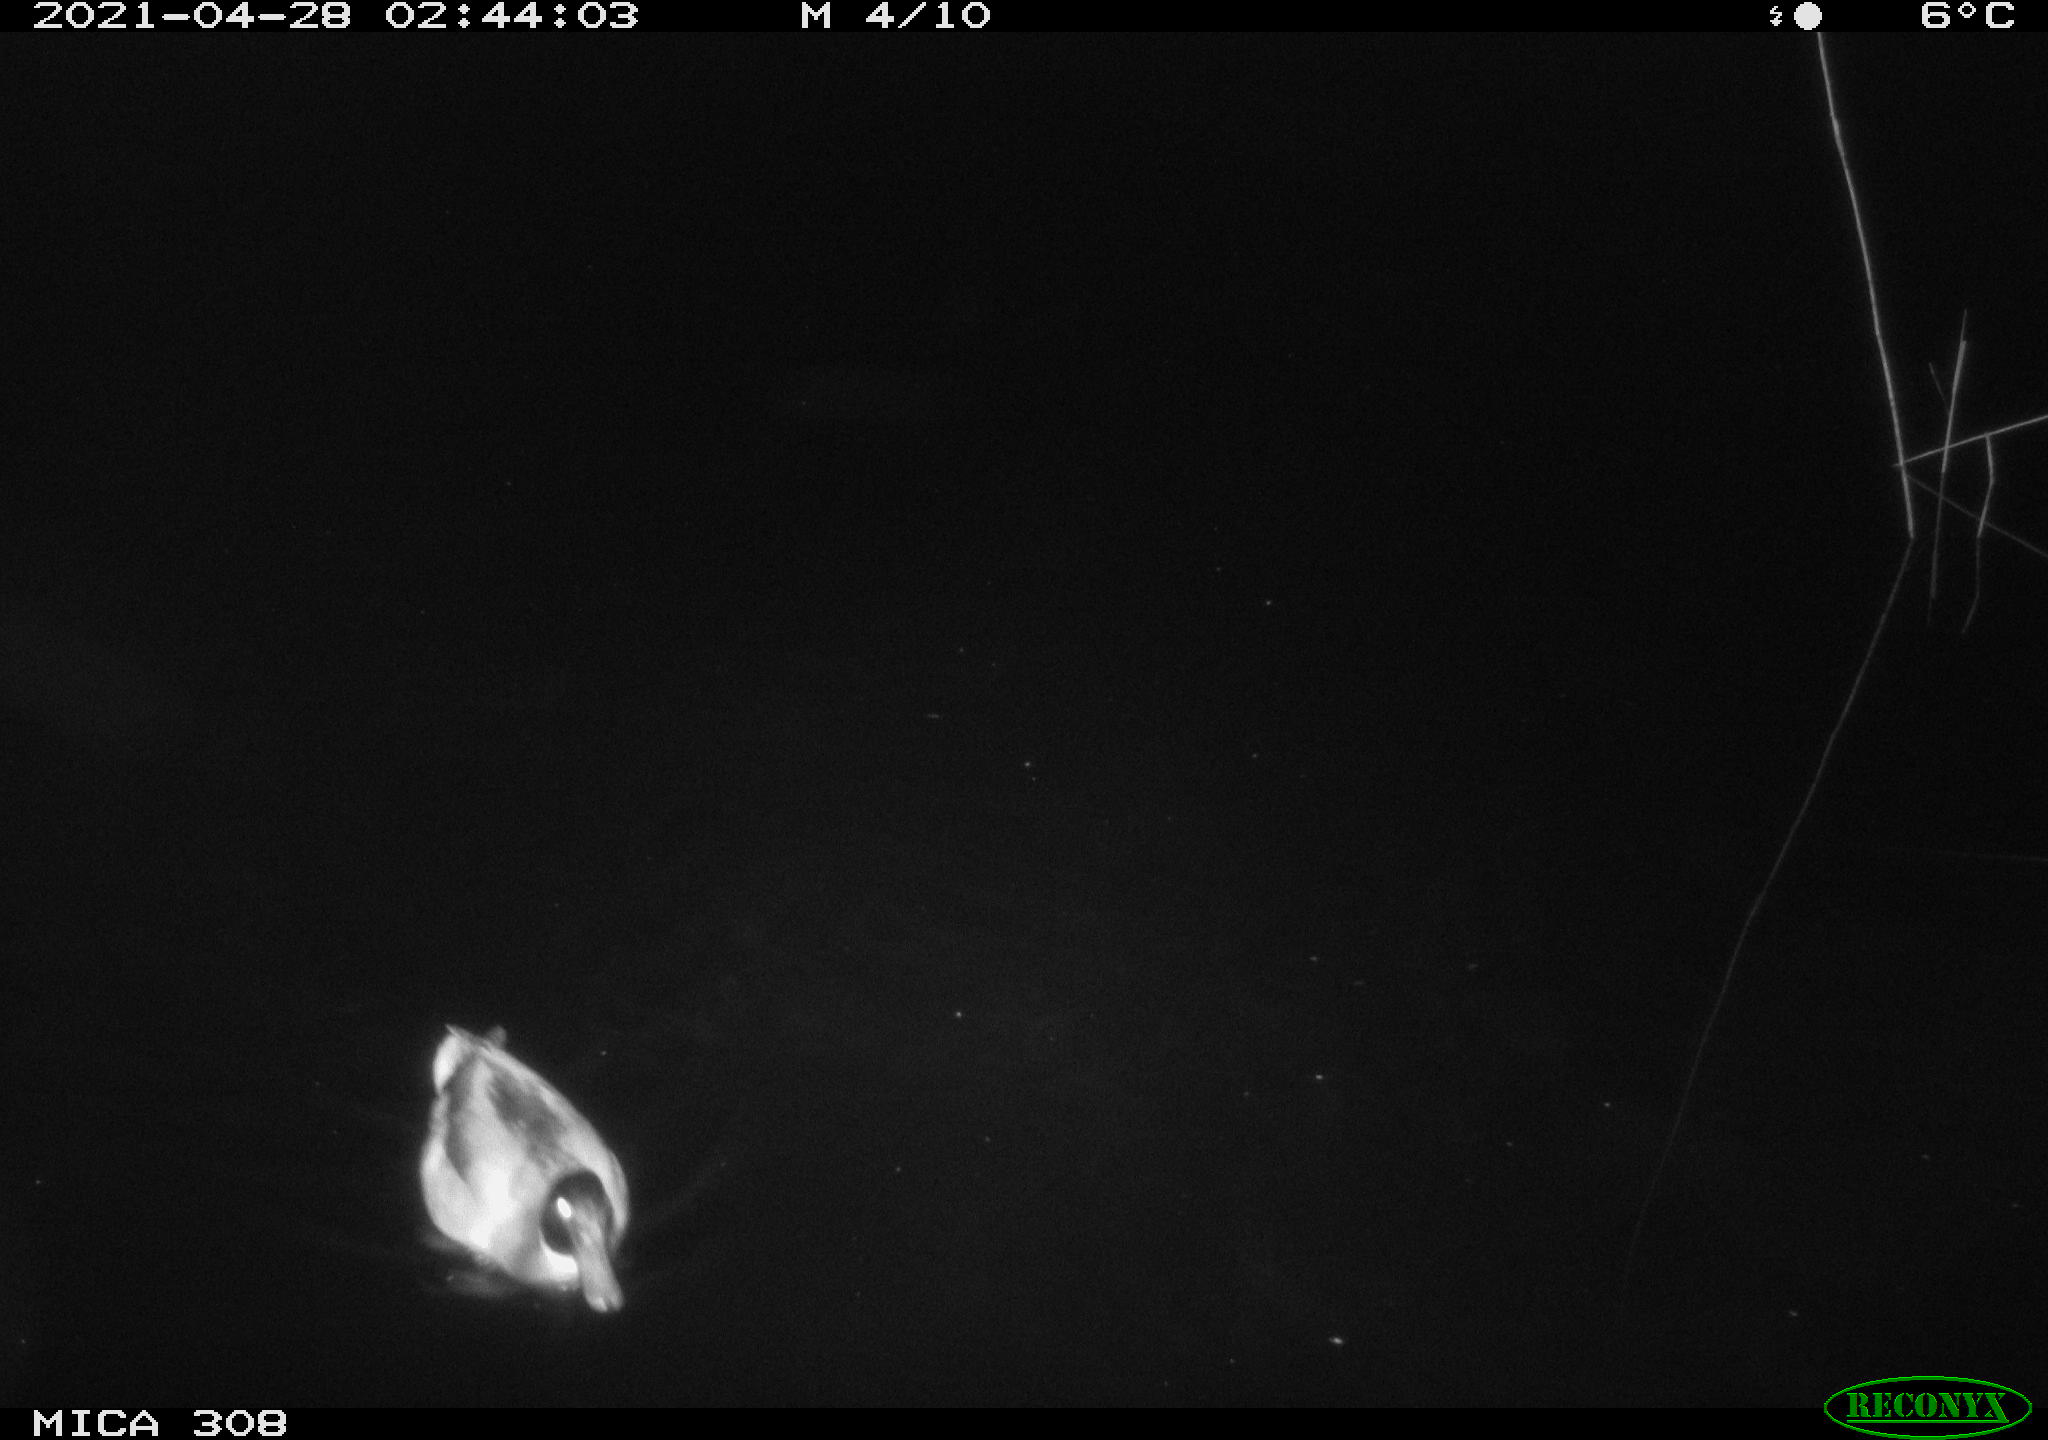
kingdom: Animalia
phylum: Chordata
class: Aves
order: Anseriformes
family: Anatidae
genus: Anas
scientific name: Anas platyrhynchos
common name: Mallard
